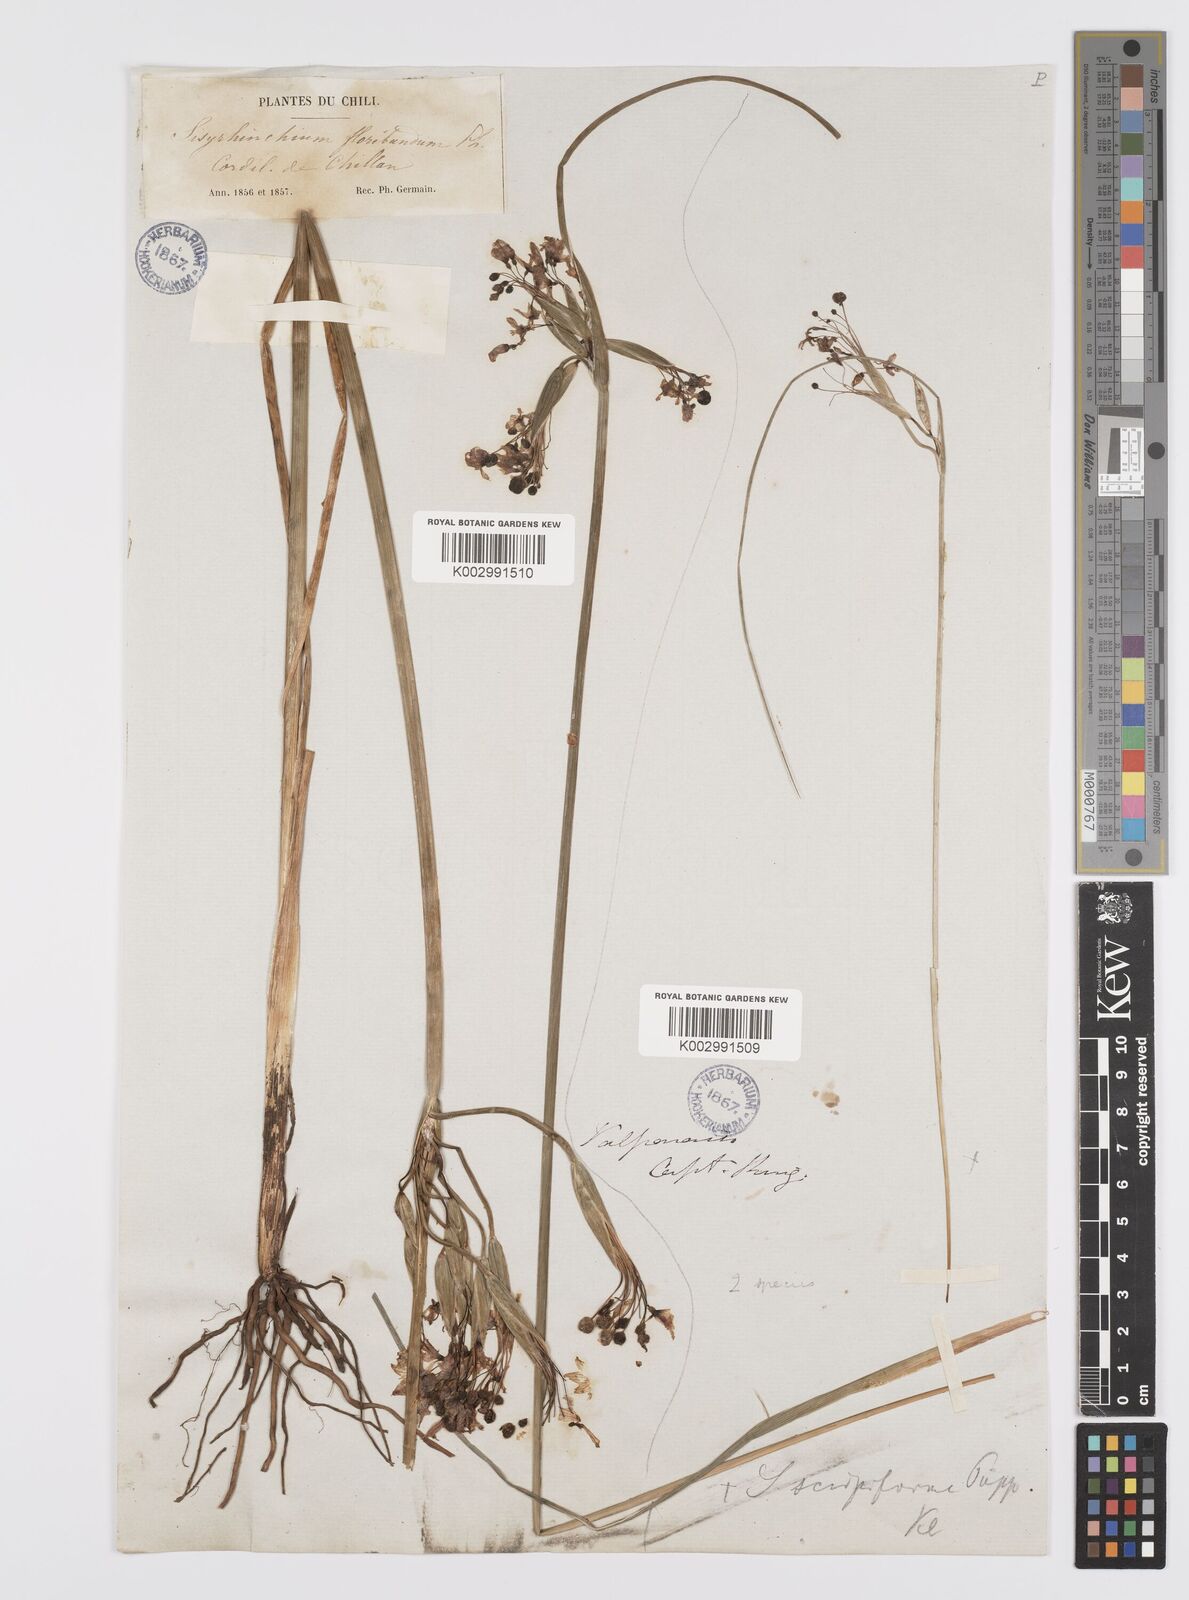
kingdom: Plantae
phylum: Tracheophyta
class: Liliopsida
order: Asparagales
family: Iridaceae
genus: Olsynium
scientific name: Olsynium junceum
